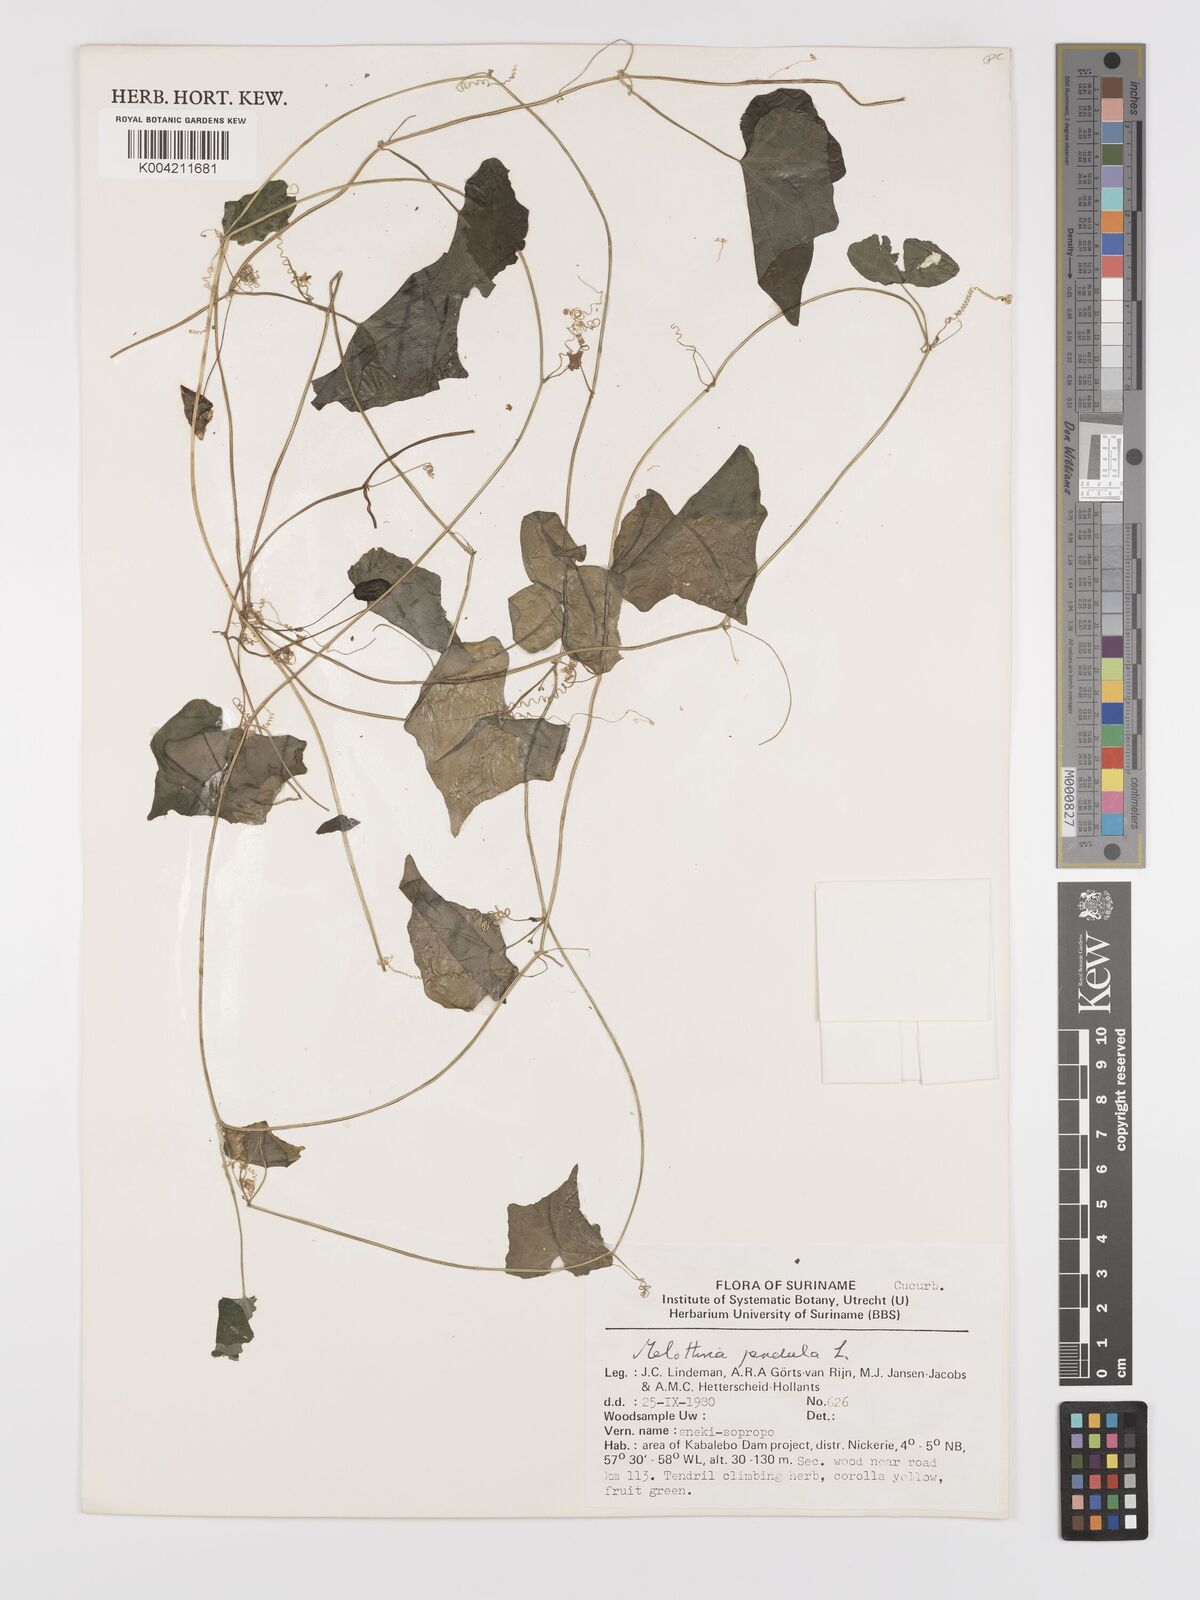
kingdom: Plantae
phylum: Tracheophyta
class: Magnoliopsida
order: Cucurbitales
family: Cucurbitaceae
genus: Melothria
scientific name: Melothria pendula
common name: Creeping-cucumber
